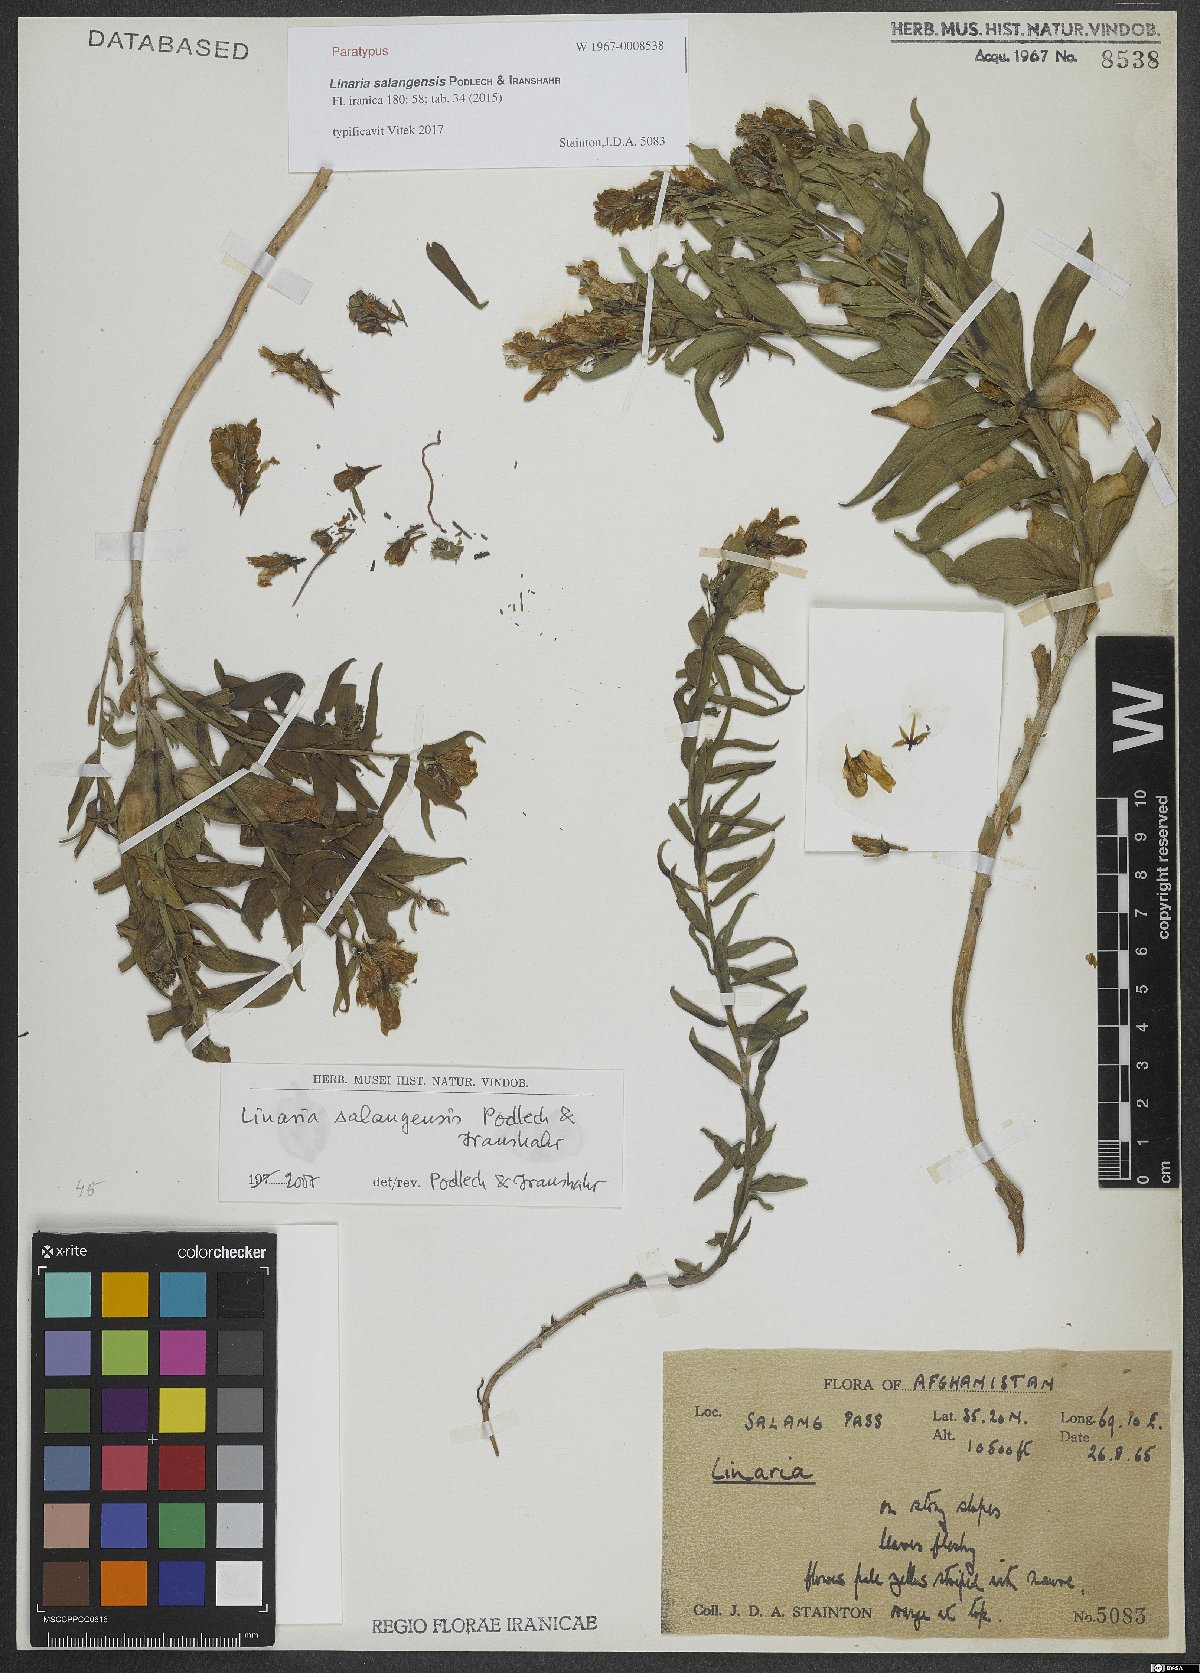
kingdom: Plantae
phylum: Tracheophyta
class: Magnoliopsida
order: Lamiales
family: Plantaginaceae
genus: Linaria
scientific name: Linaria salangensis
